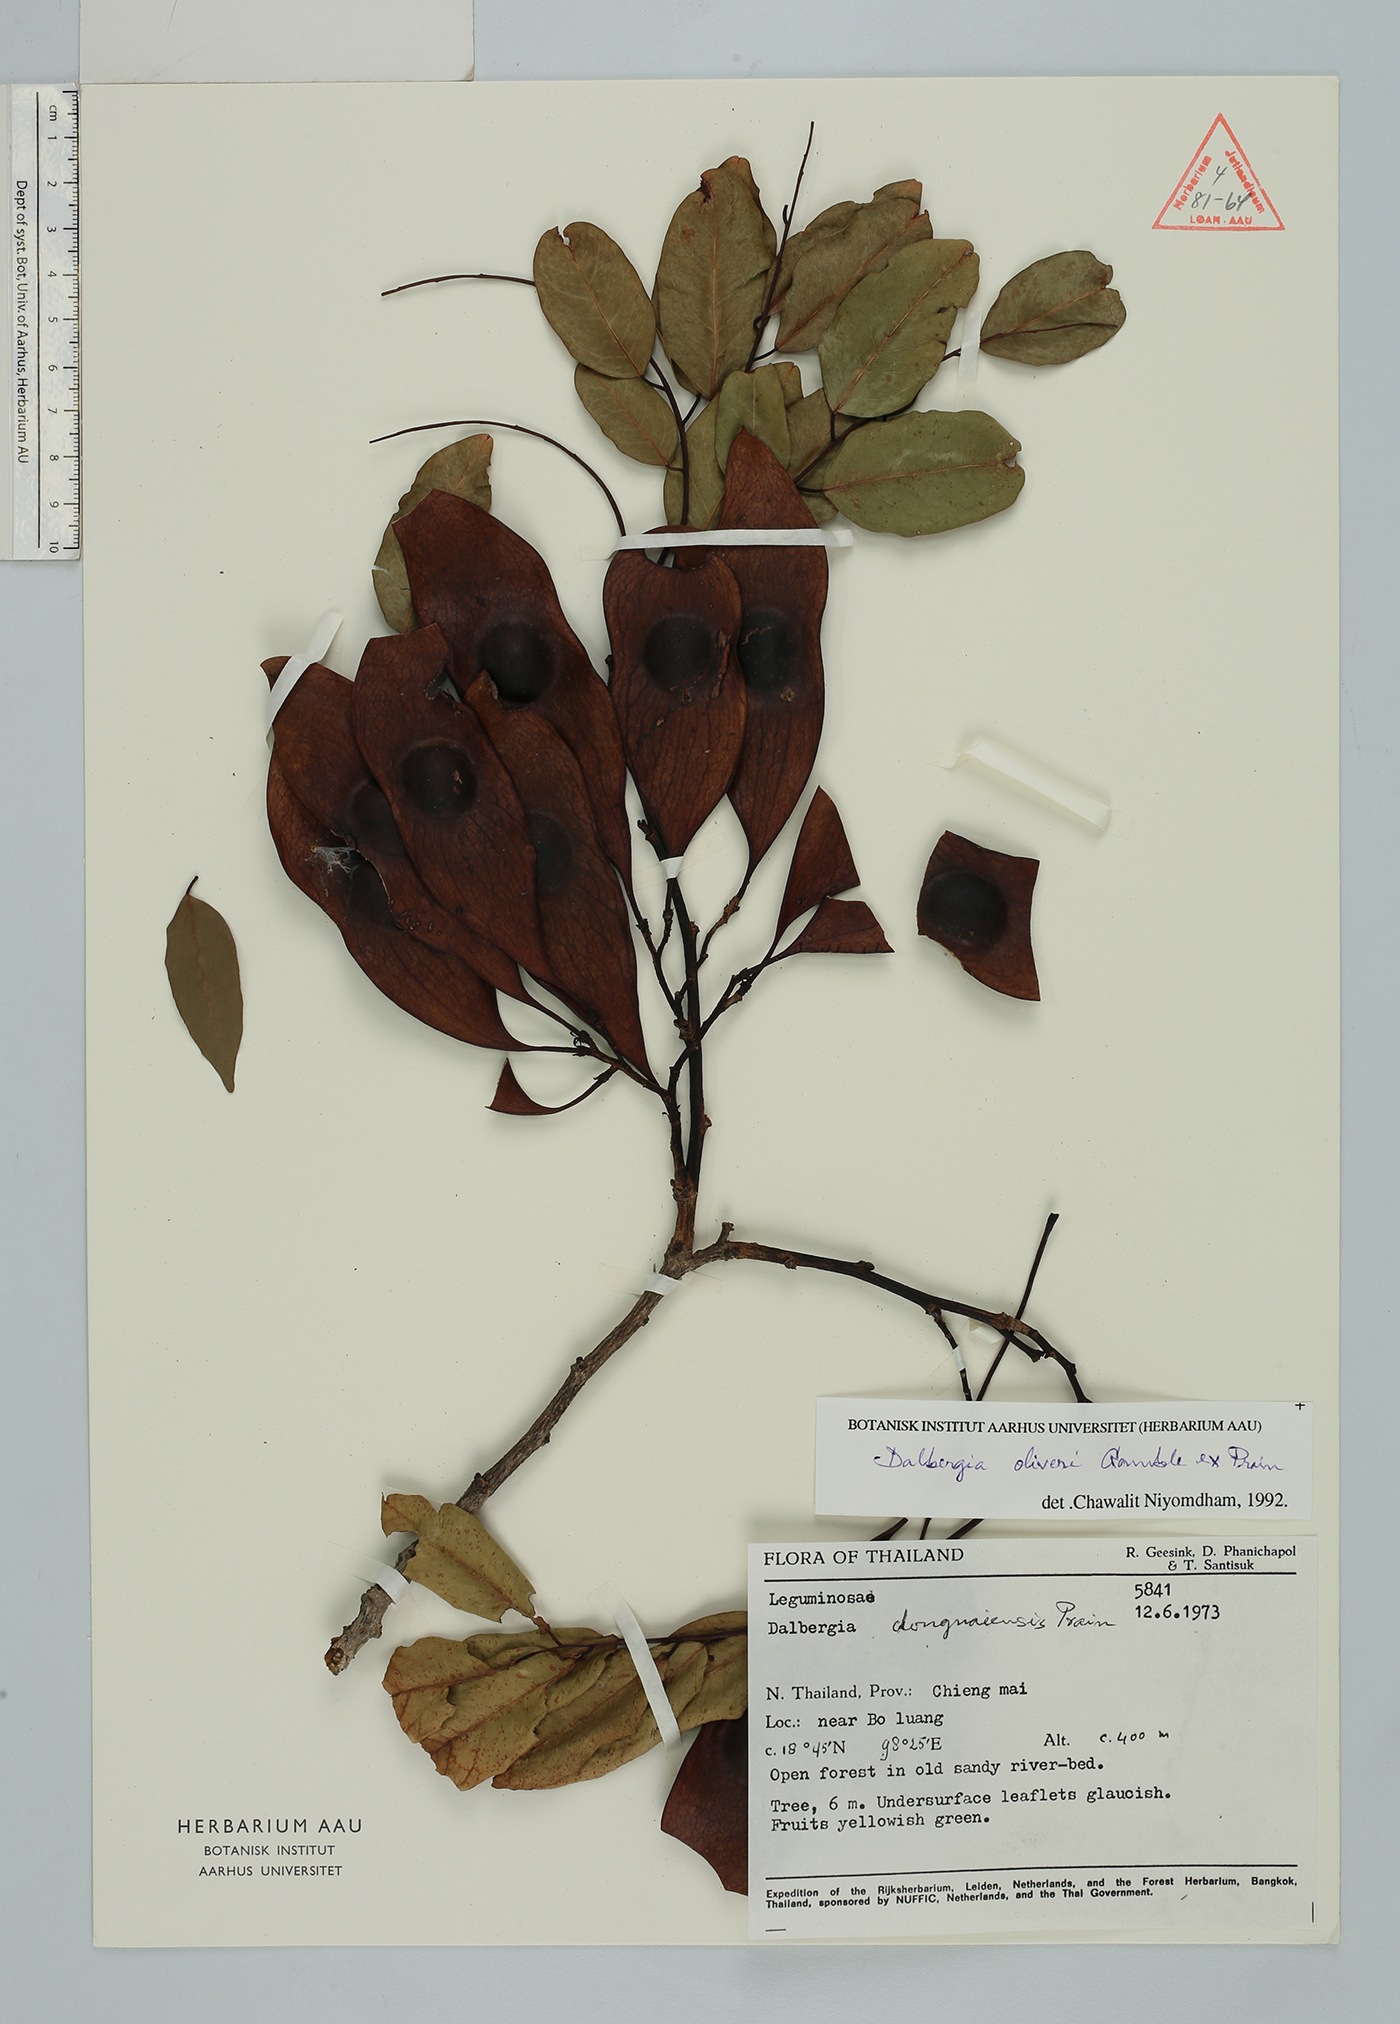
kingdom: Plantae
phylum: Tracheophyta
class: Magnoliopsida
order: Fabales
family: Fabaceae
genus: Dalbergia
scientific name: Dalbergia oliveri
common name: Burmese rosewood
